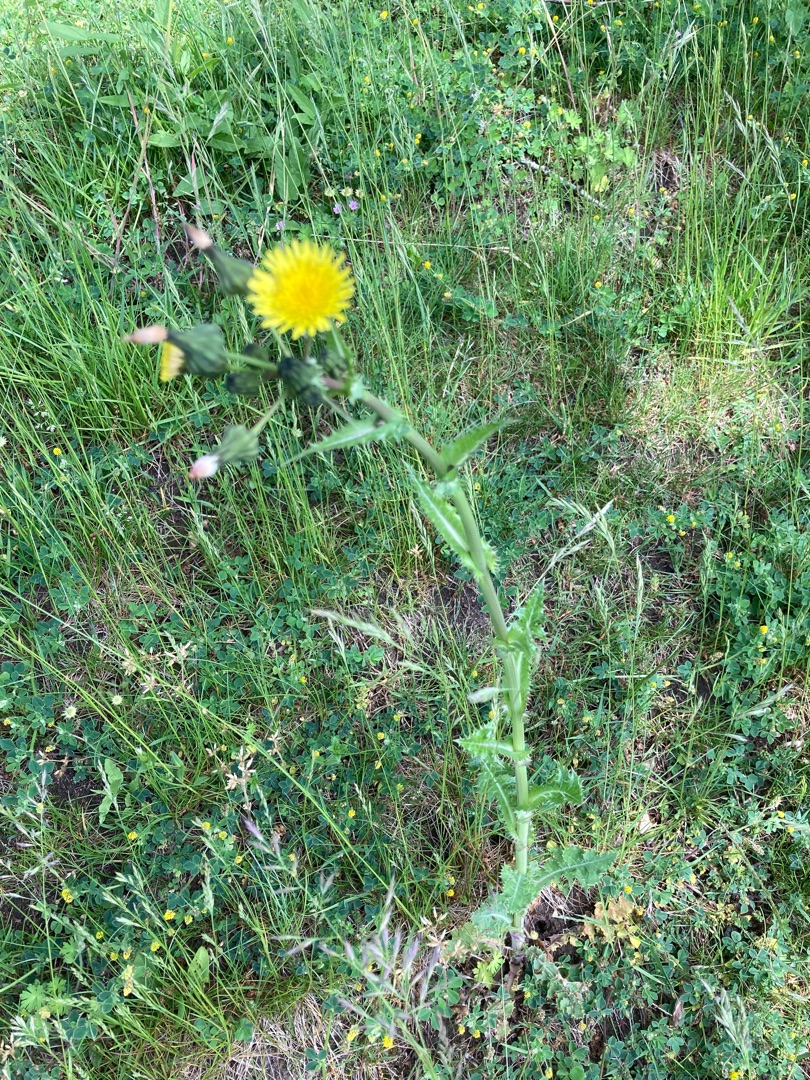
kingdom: Plantae
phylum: Tracheophyta
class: Magnoliopsida
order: Asterales
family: Asteraceae
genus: Sonchus
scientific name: Sonchus asper
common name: Ru svinemælk
